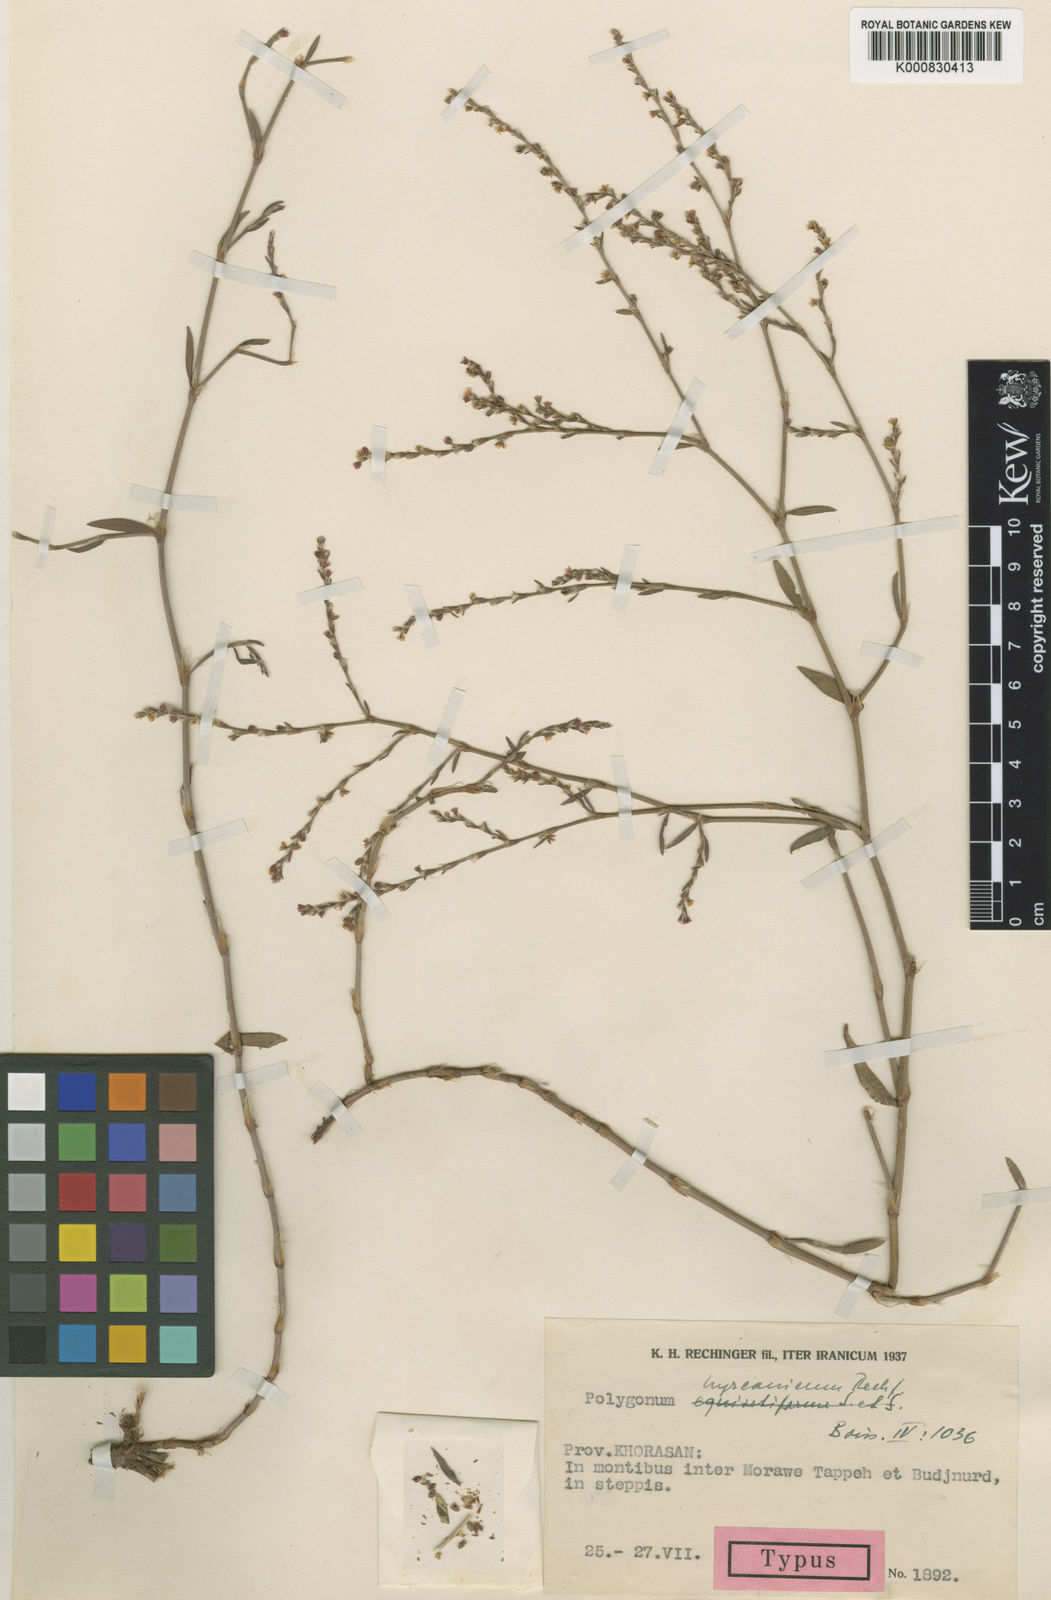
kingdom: Plantae
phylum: Tracheophyta
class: Magnoliopsida
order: Caryophyllales
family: Polygonaceae
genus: Polygonum
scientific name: Polygonum hyrcanicum
